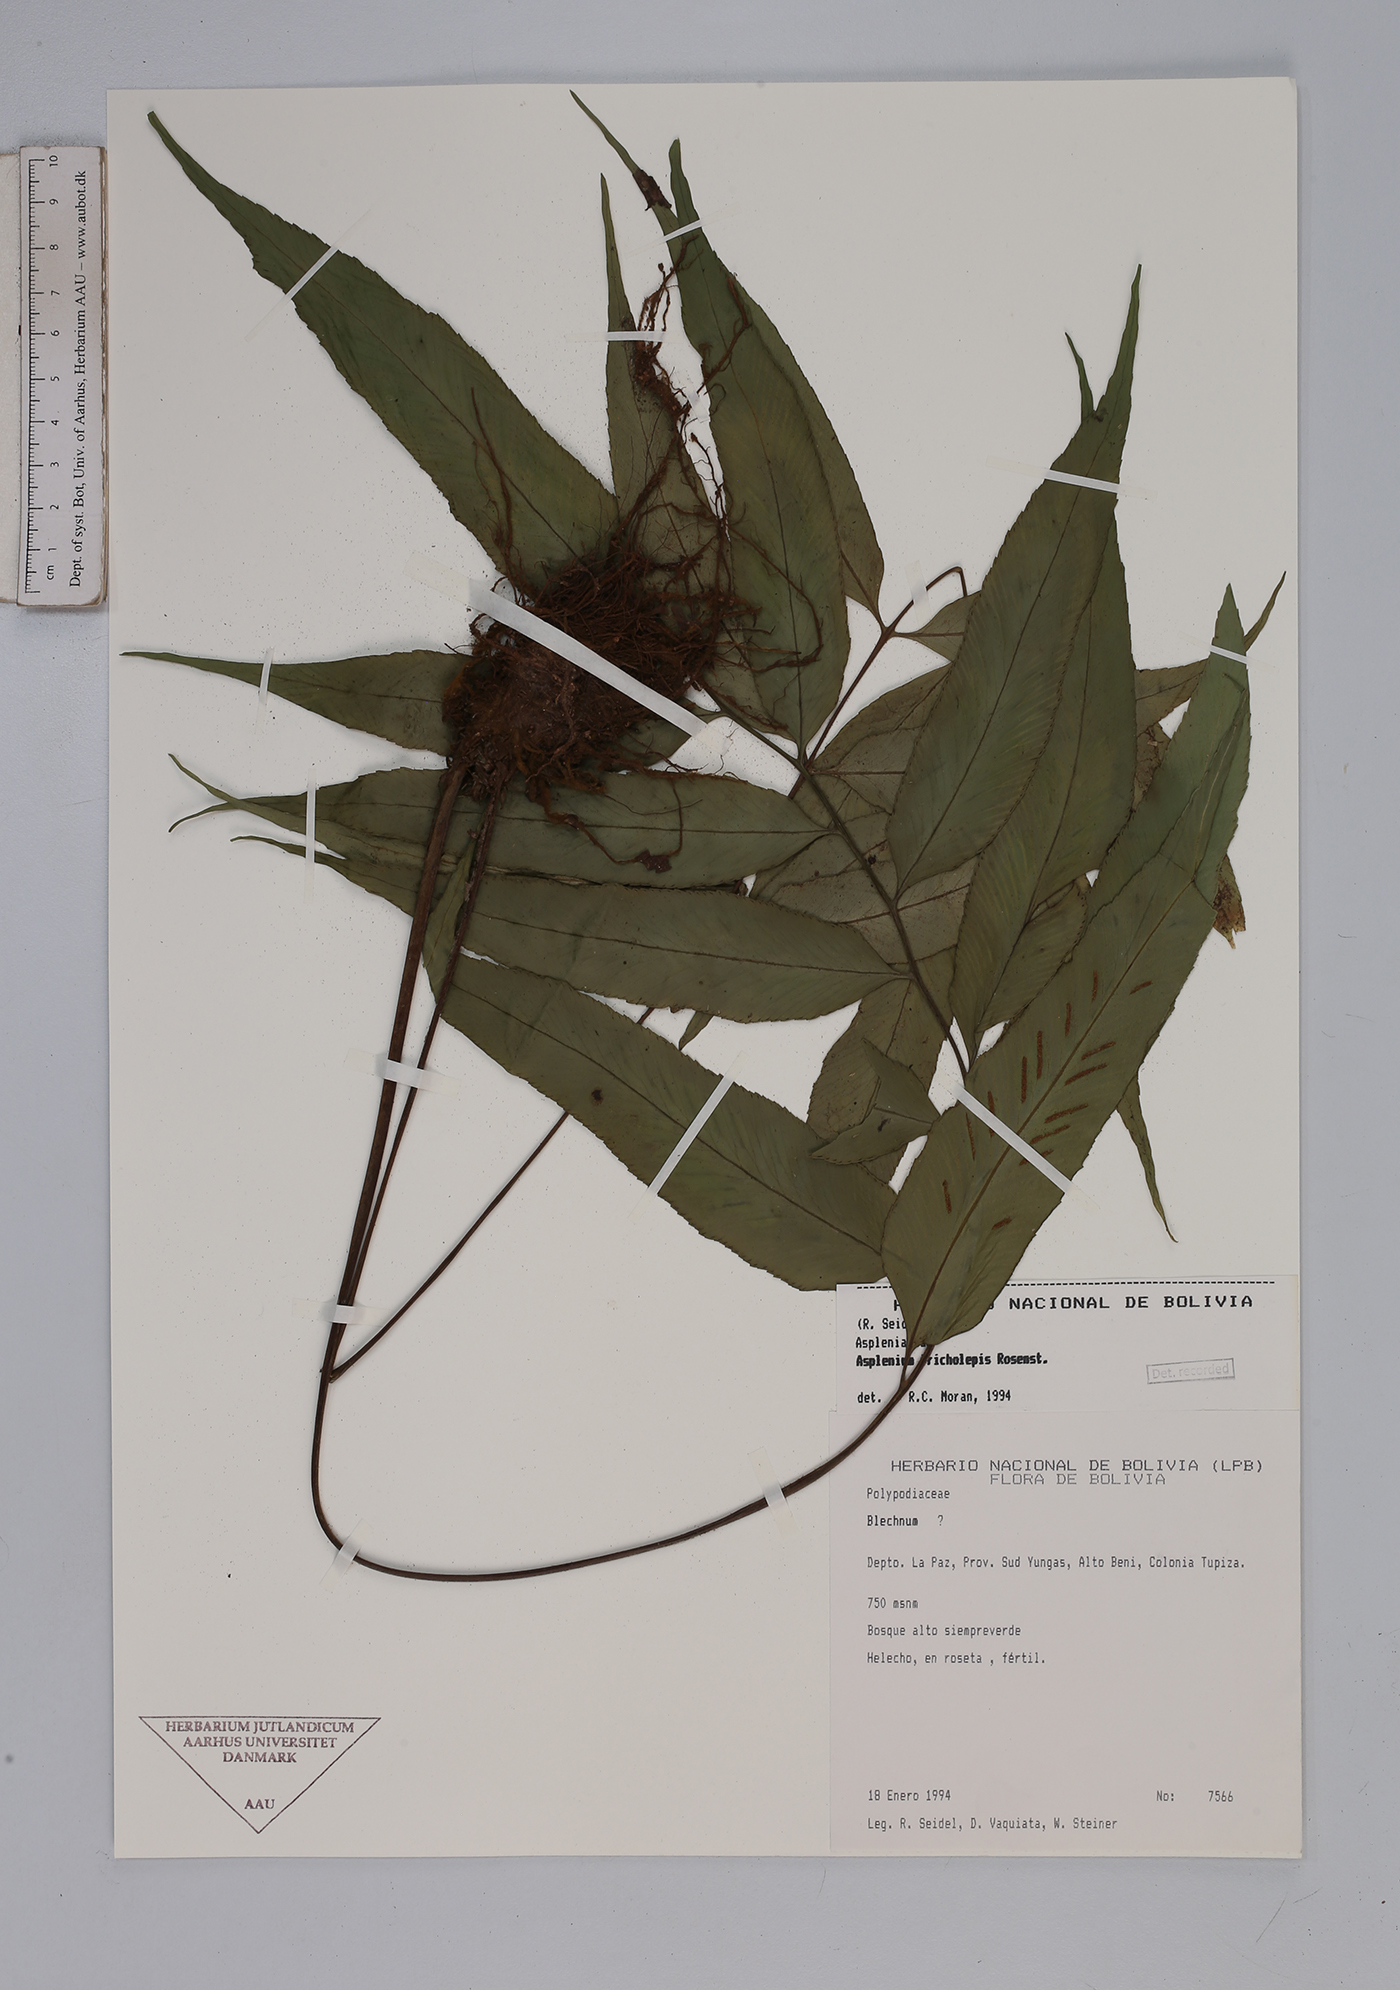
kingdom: Plantae
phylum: Tracheophyta
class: Polypodiopsida
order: Polypodiales
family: Aspleniaceae
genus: Asplenium
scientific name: Asplenium tricholepis
